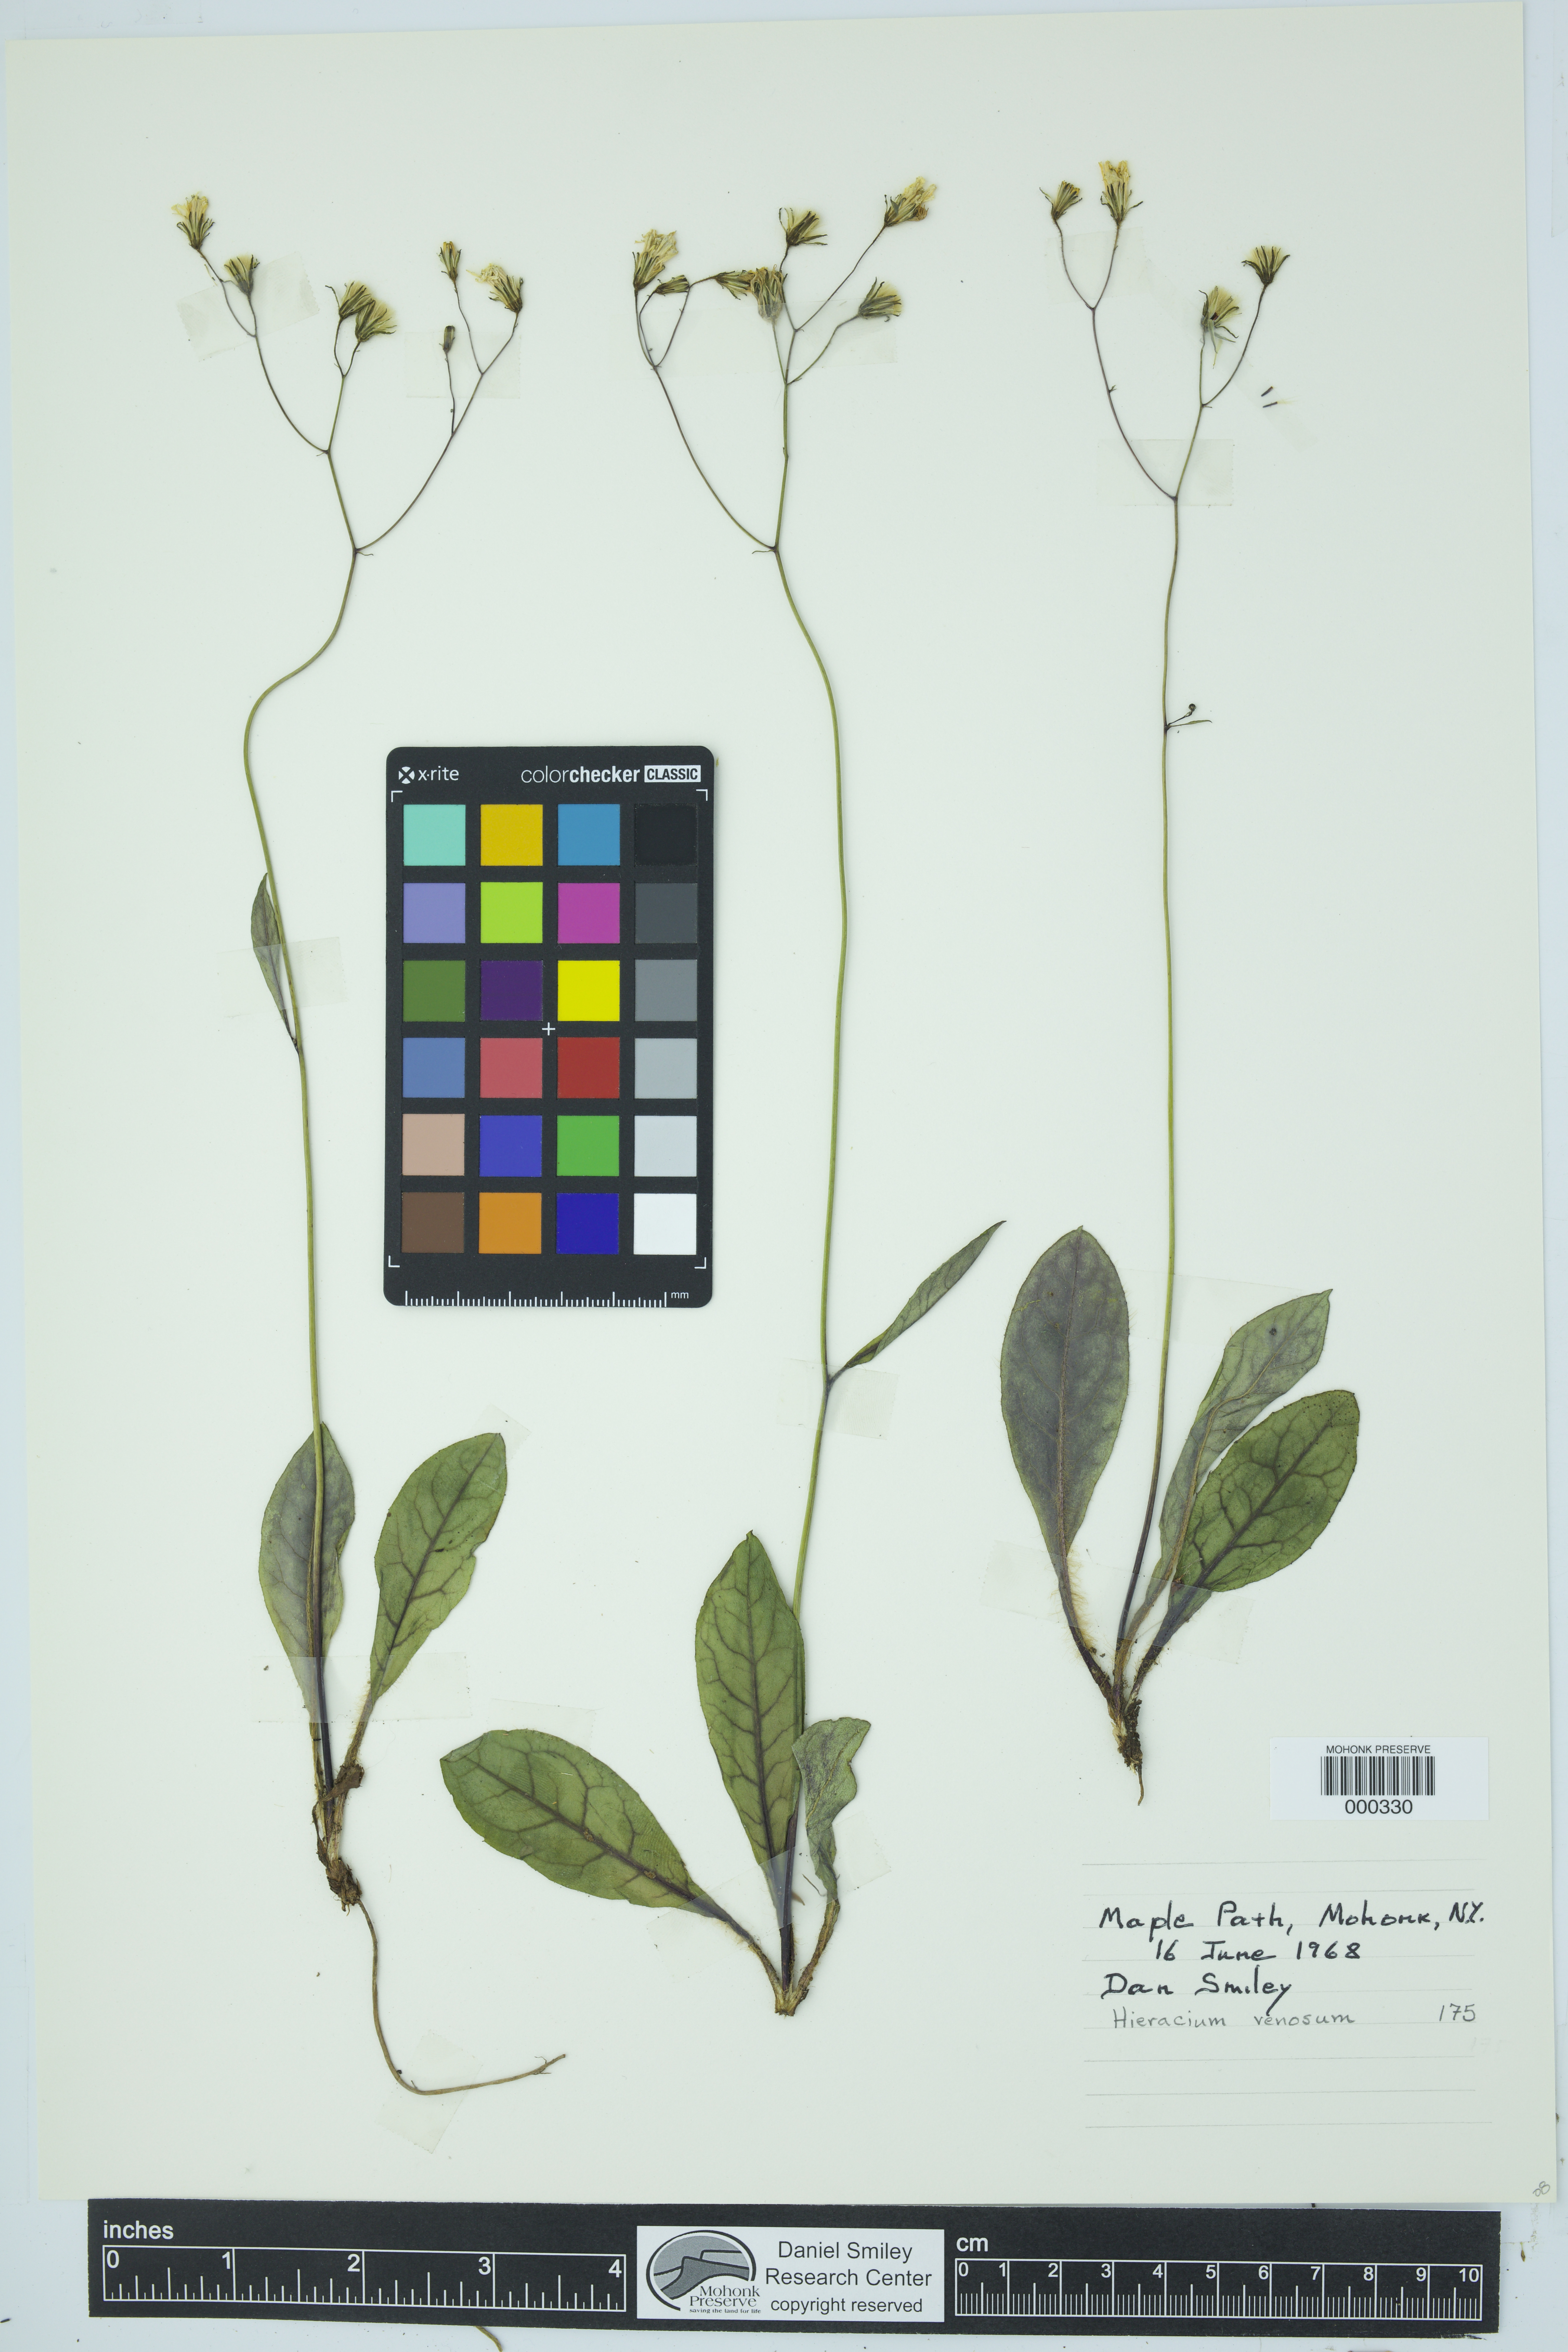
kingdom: Plantae
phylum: Tracheophyta
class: Magnoliopsida
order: Asterales
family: Asteraceae
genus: Hieracium
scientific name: Hieracium venosum
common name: Rattlesnake hawkweed
